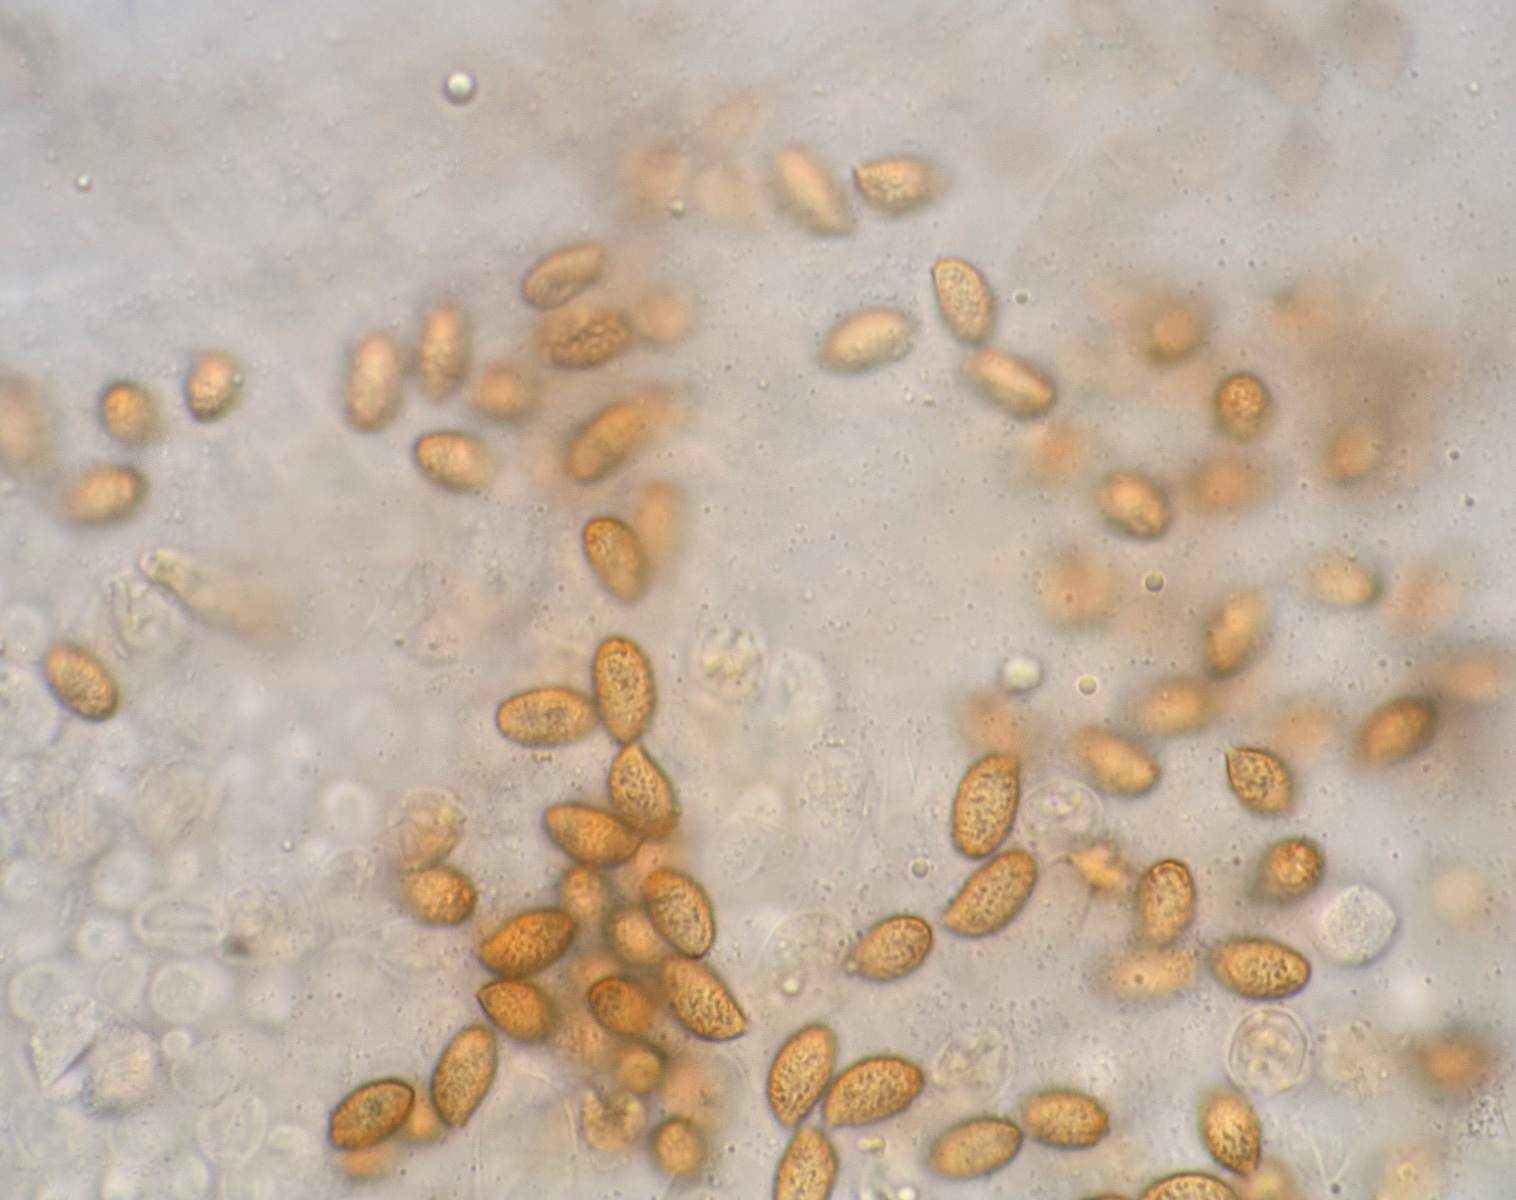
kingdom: Fungi
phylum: Basidiomycota
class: Agaricomycetes
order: Agaricales
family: Cortinariaceae
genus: Cortinarius
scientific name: Cortinarius incisior
